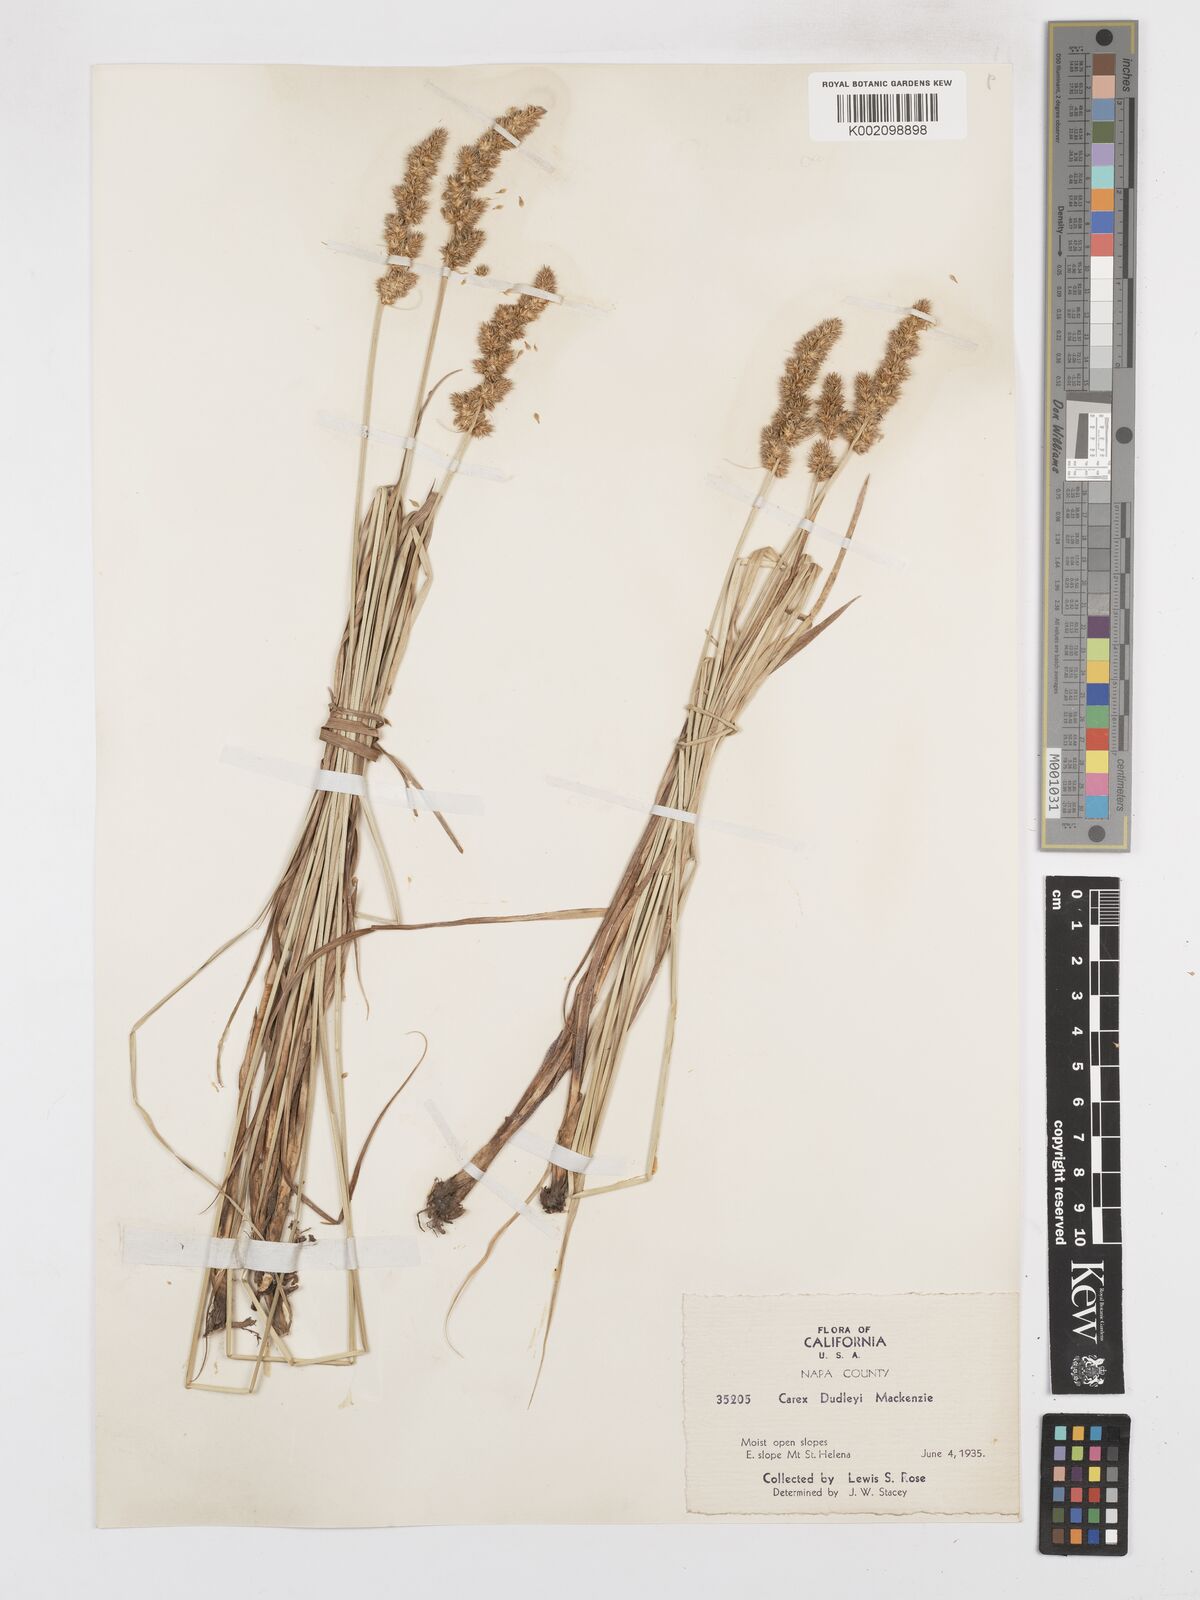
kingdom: Plantae
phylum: Tracheophyta
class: Liliopsida
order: Poales
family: Cyperaceae
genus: Carex
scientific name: Carex densa
